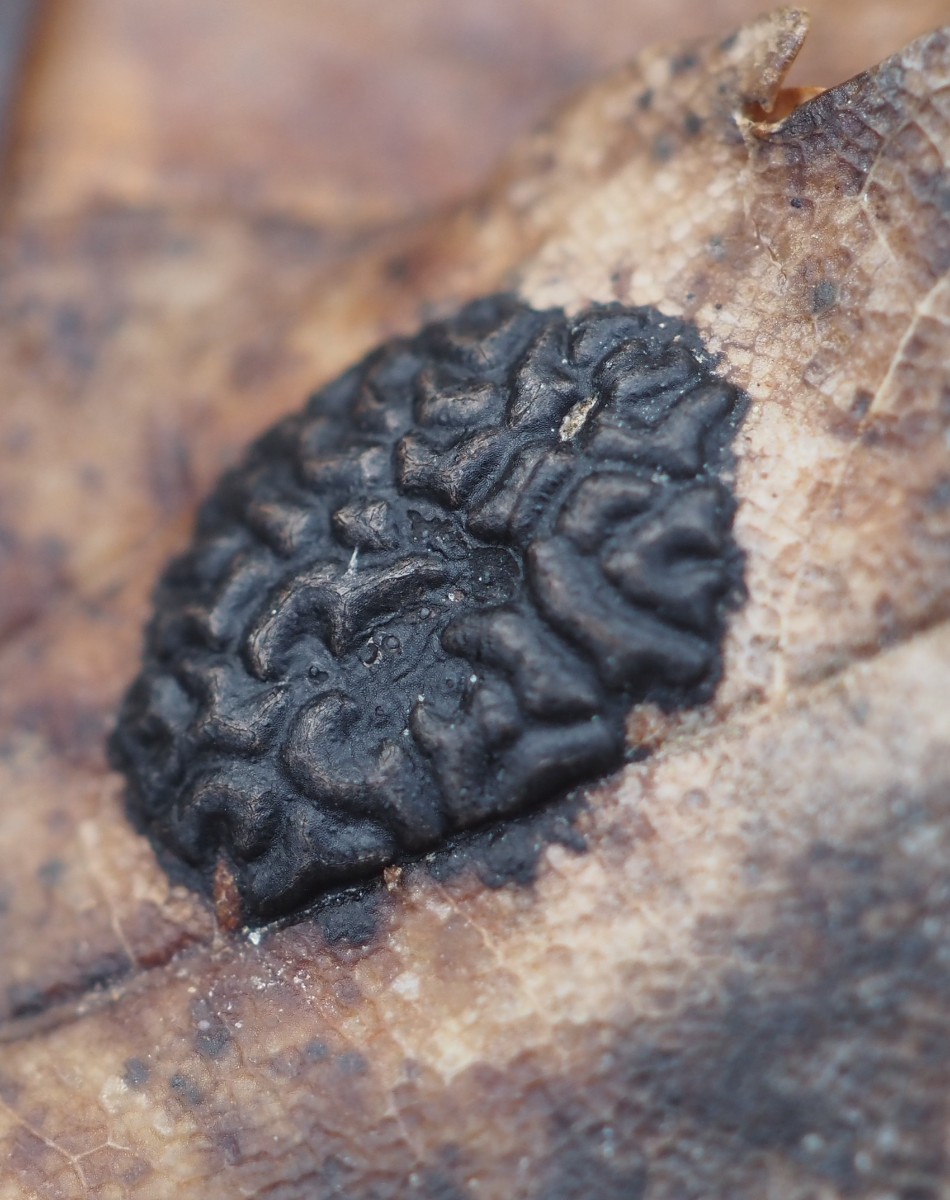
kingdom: Fungi
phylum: Ascomycota
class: Leotiomycetes
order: Rhytismatales
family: Rhytismataceae
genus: Rhytisma
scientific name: Rhytisma acerinum
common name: ahorn-rynkeplet
